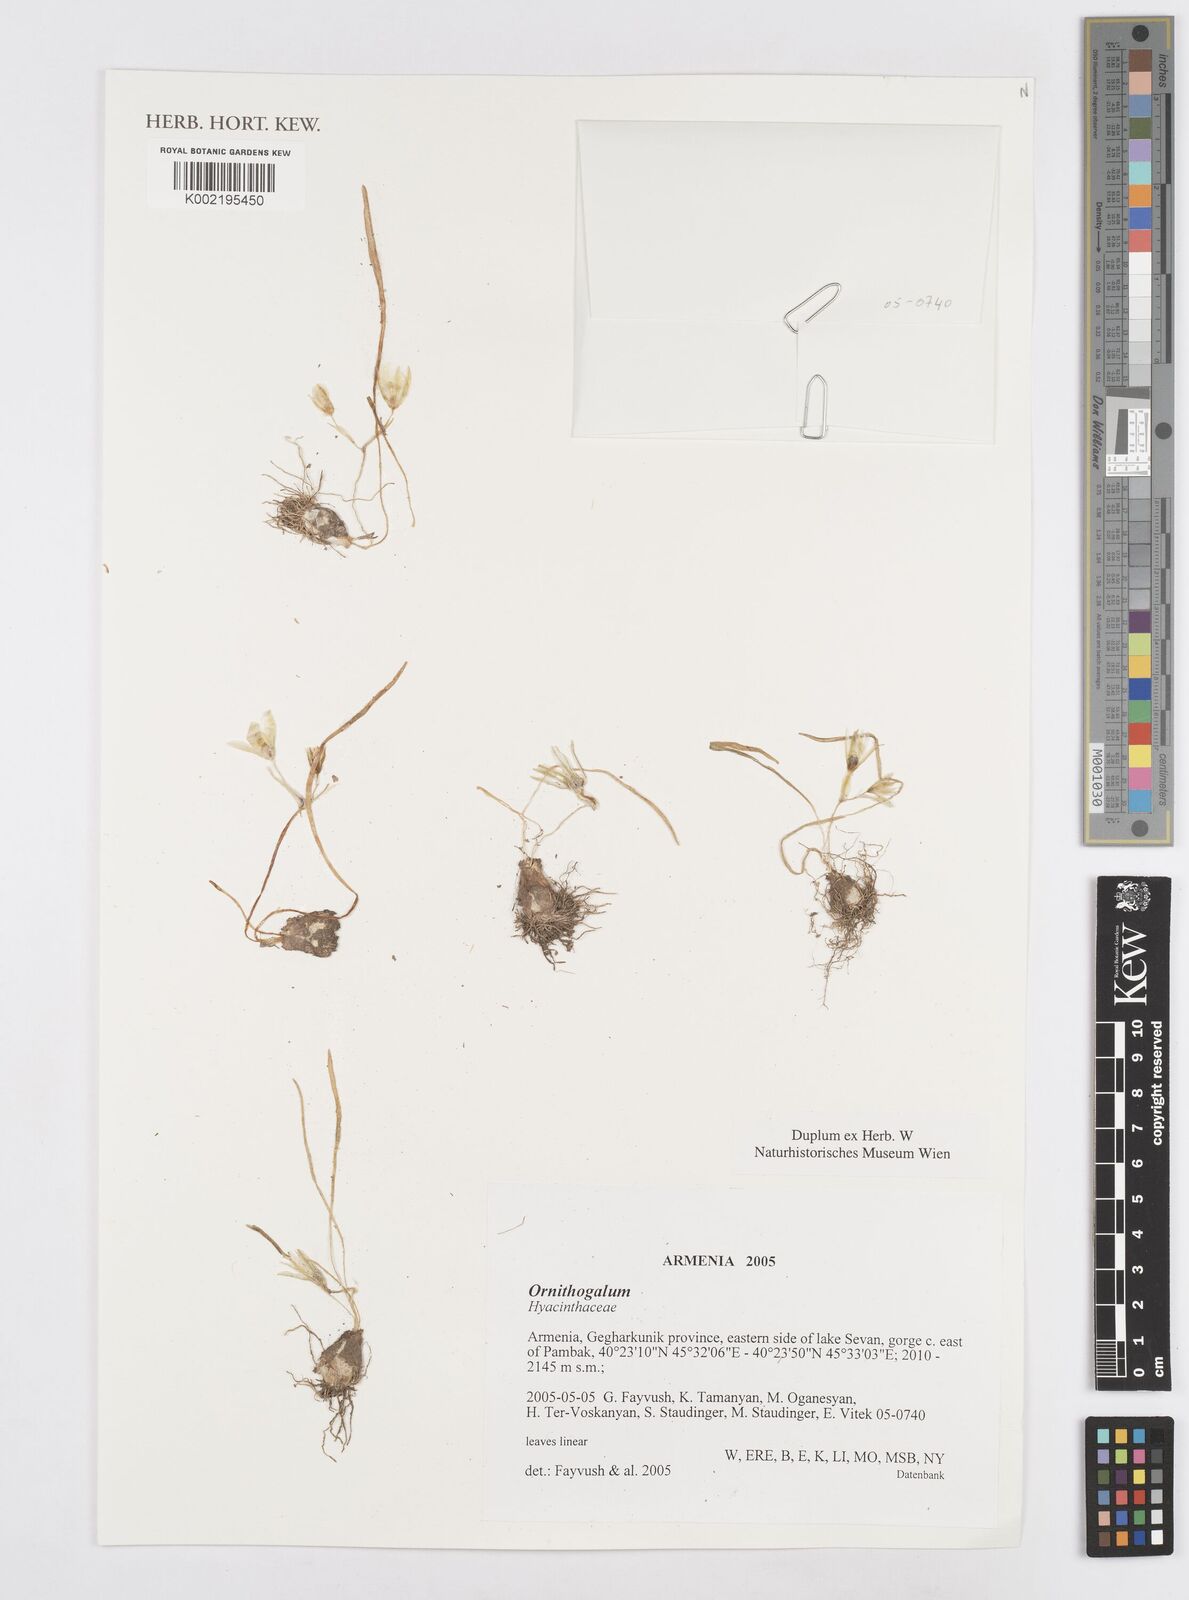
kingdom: Plantae
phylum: Tracheophyta
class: Liliopsida
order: Asparagales
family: Asparagaceae
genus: Ornithogalum
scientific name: Ornithogalum
